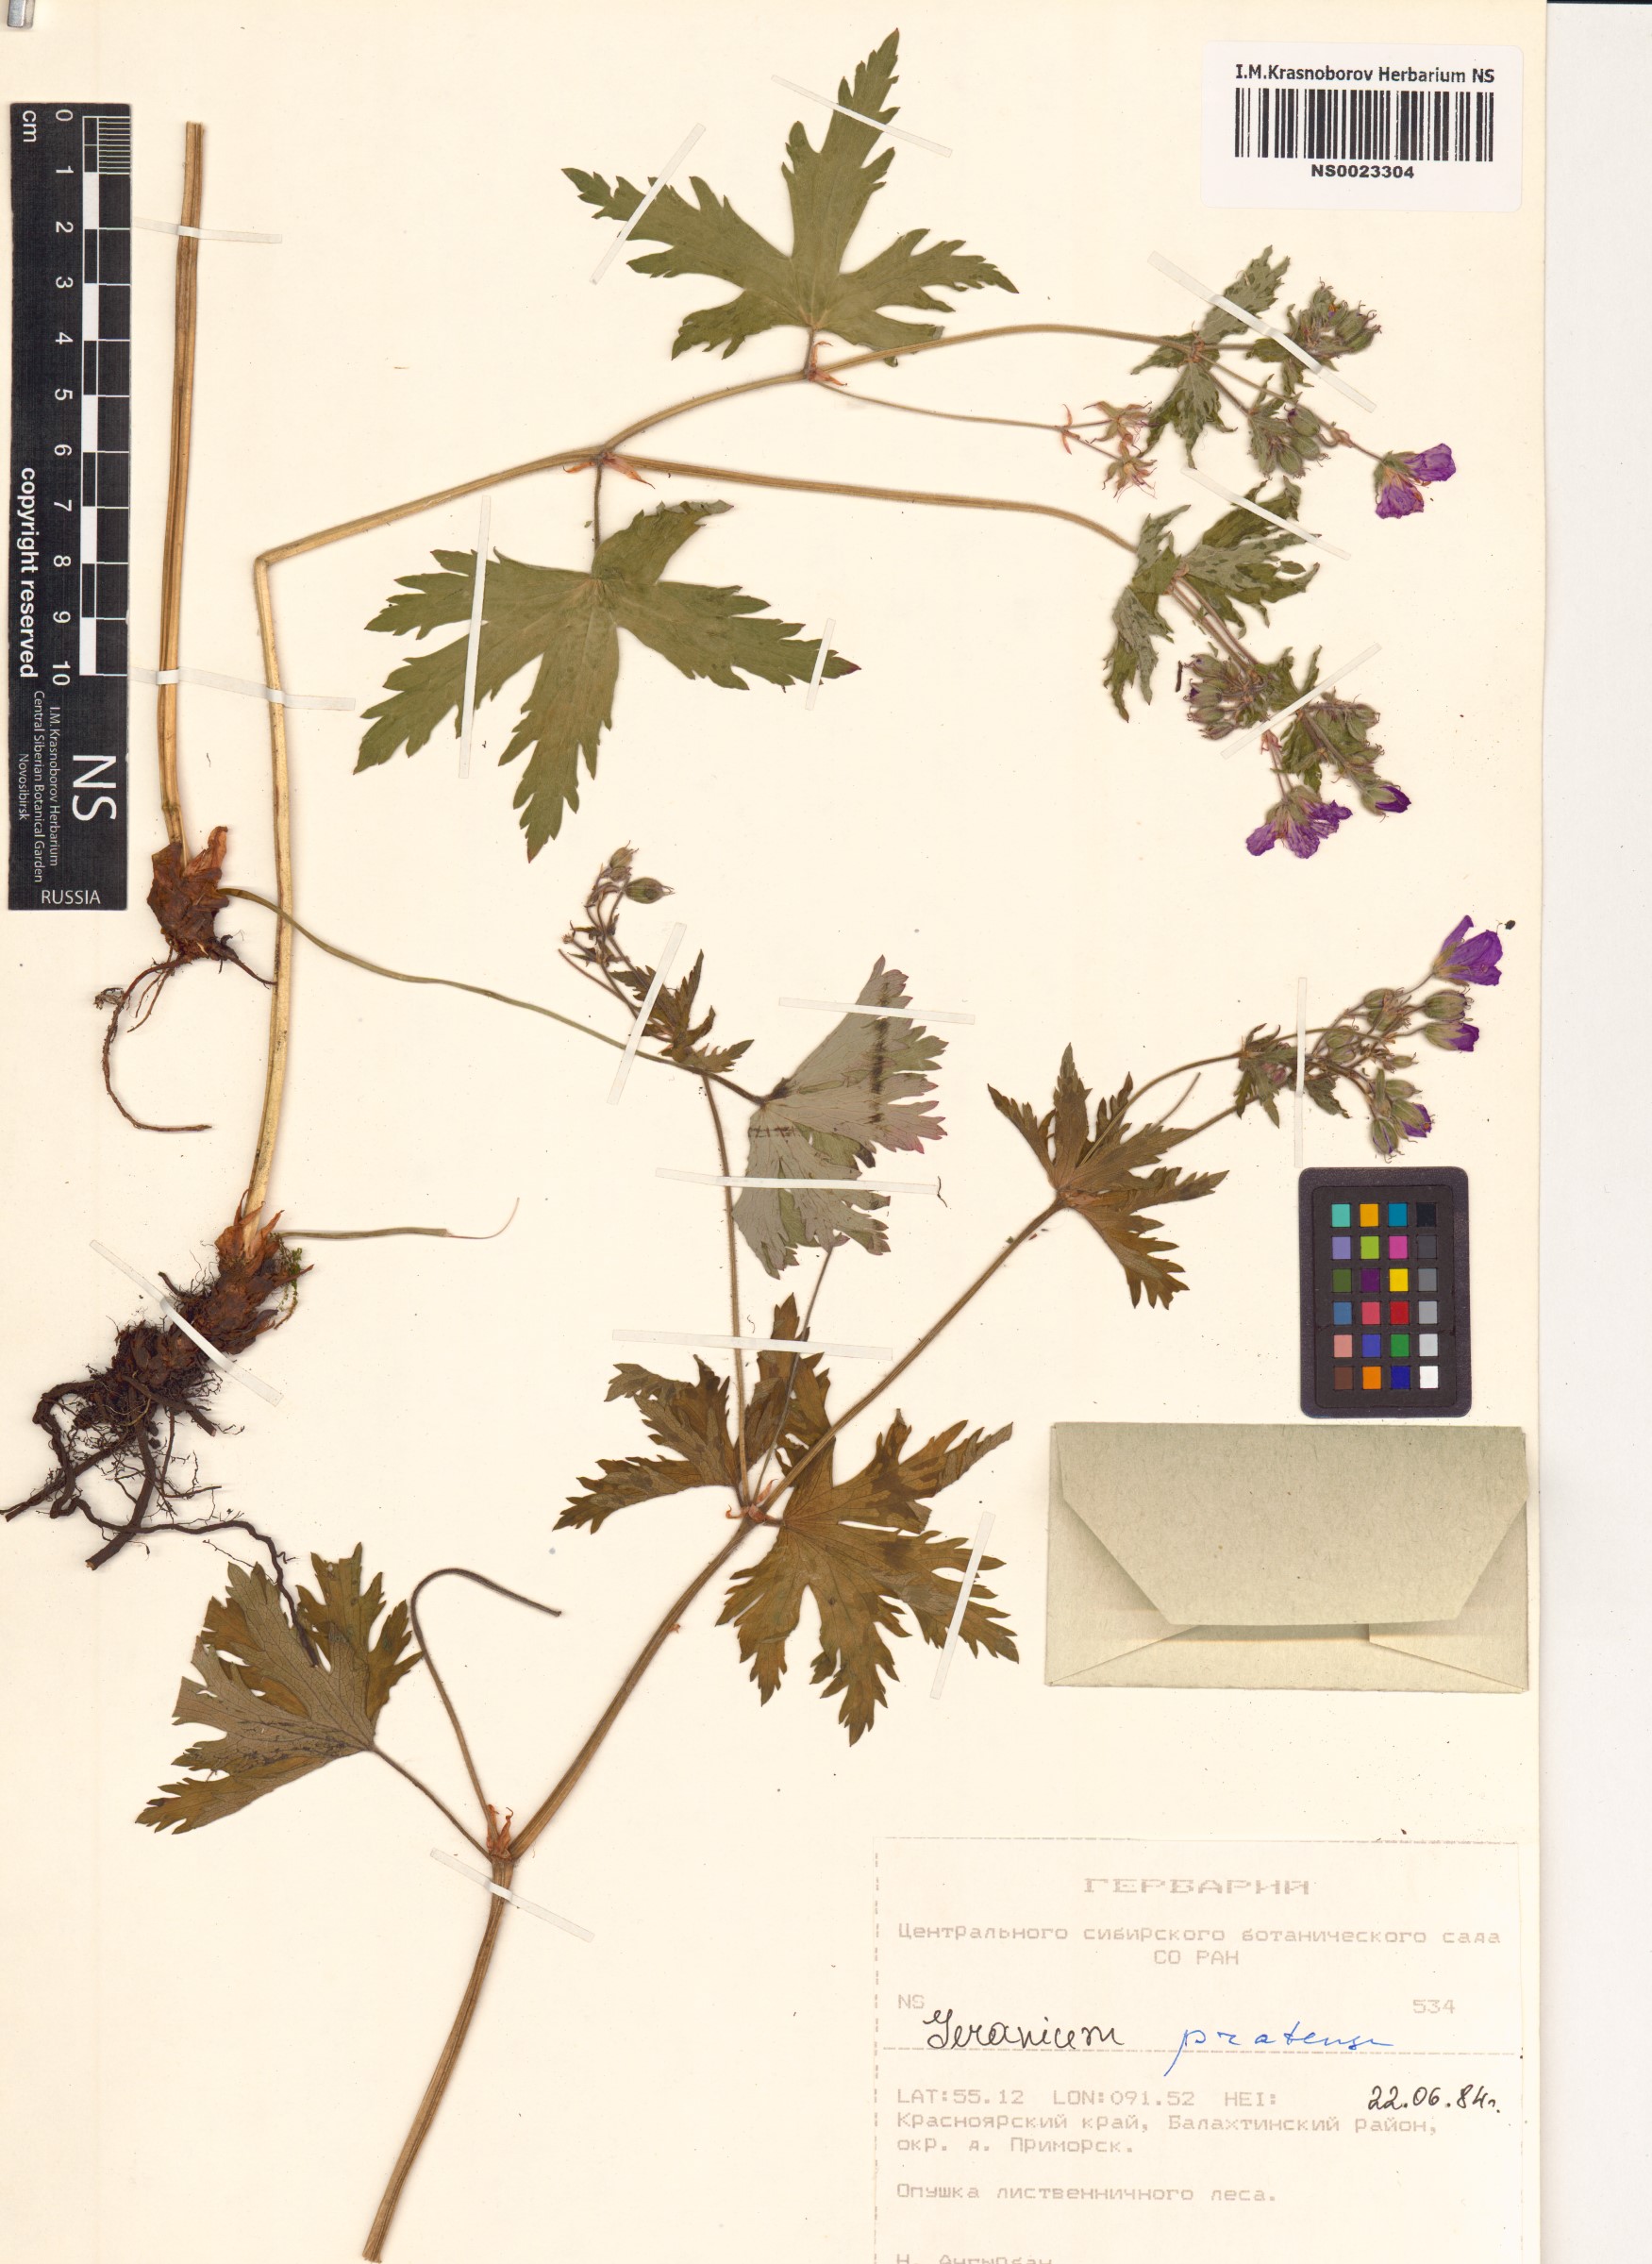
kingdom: Plantae
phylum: Tracheophyta
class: Magnoliopsida
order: Geraniales
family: Geraniaceae
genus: Geranium
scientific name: Geranium pratense
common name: Meadow crane's-bill
